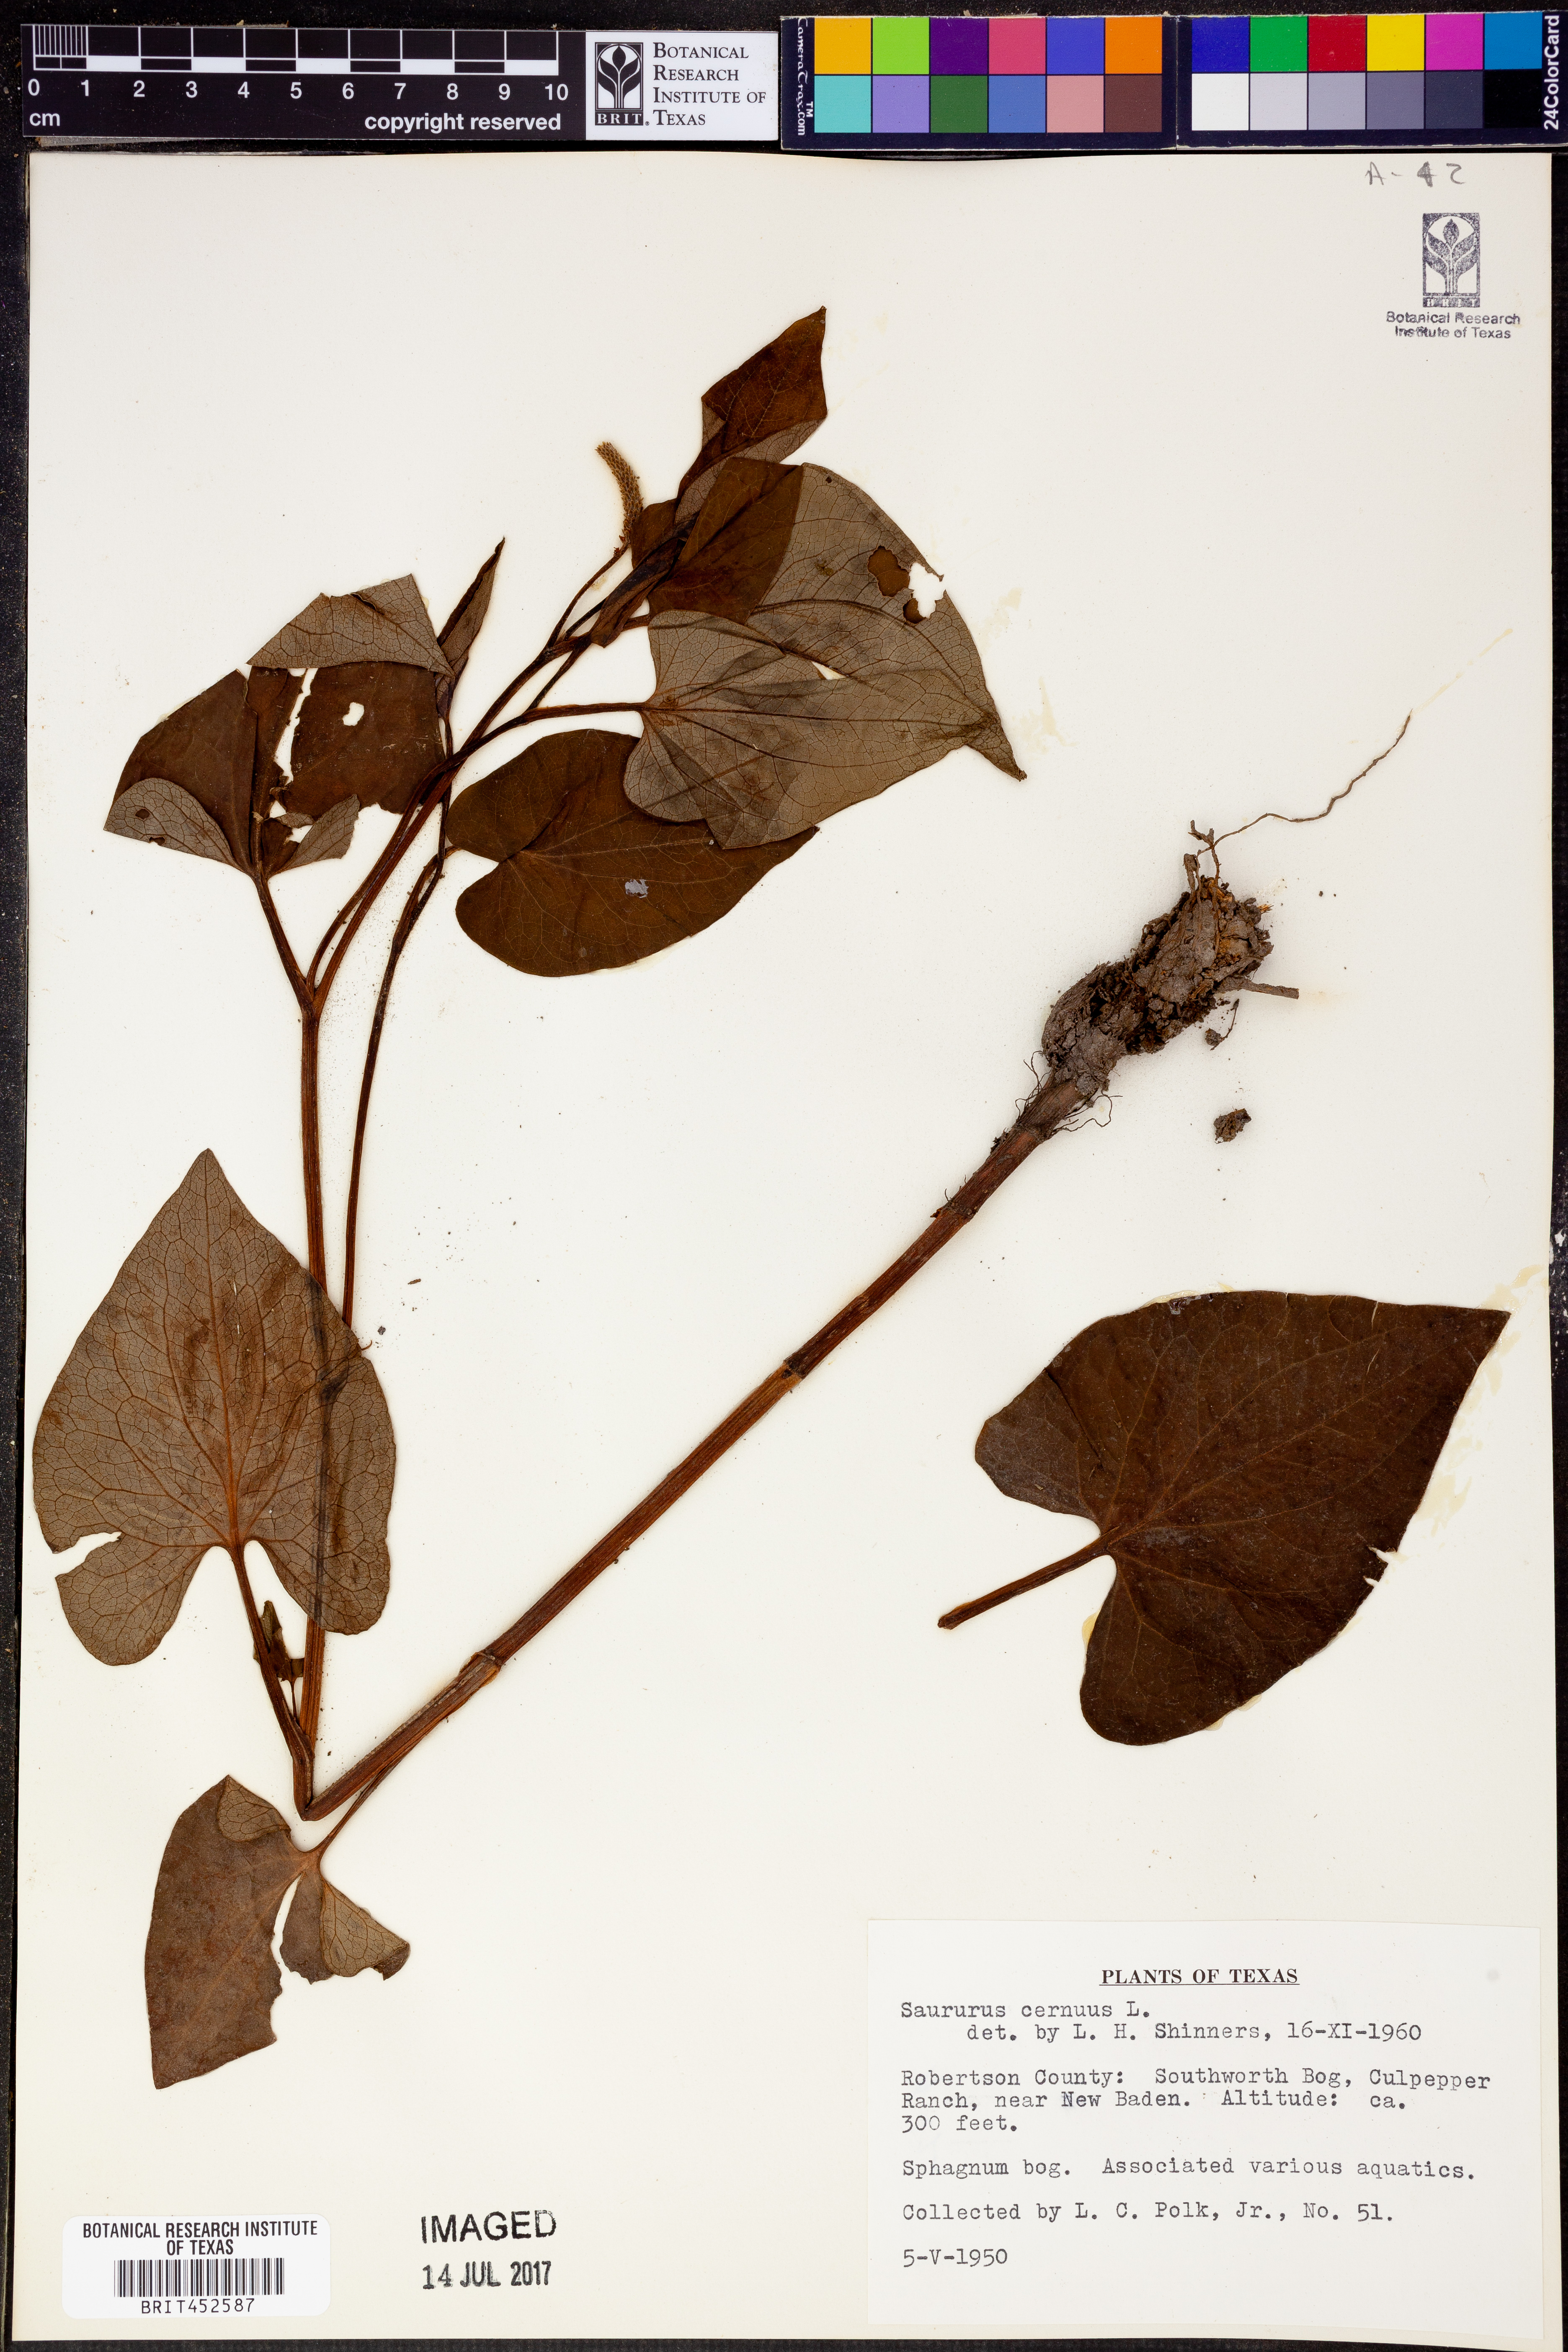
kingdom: Plantae
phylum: Tracheophyta
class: Magnoliopsida
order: Piperales
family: Saururaceae
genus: Saururus
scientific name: Saururus cernuus
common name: Lizard's-tail
